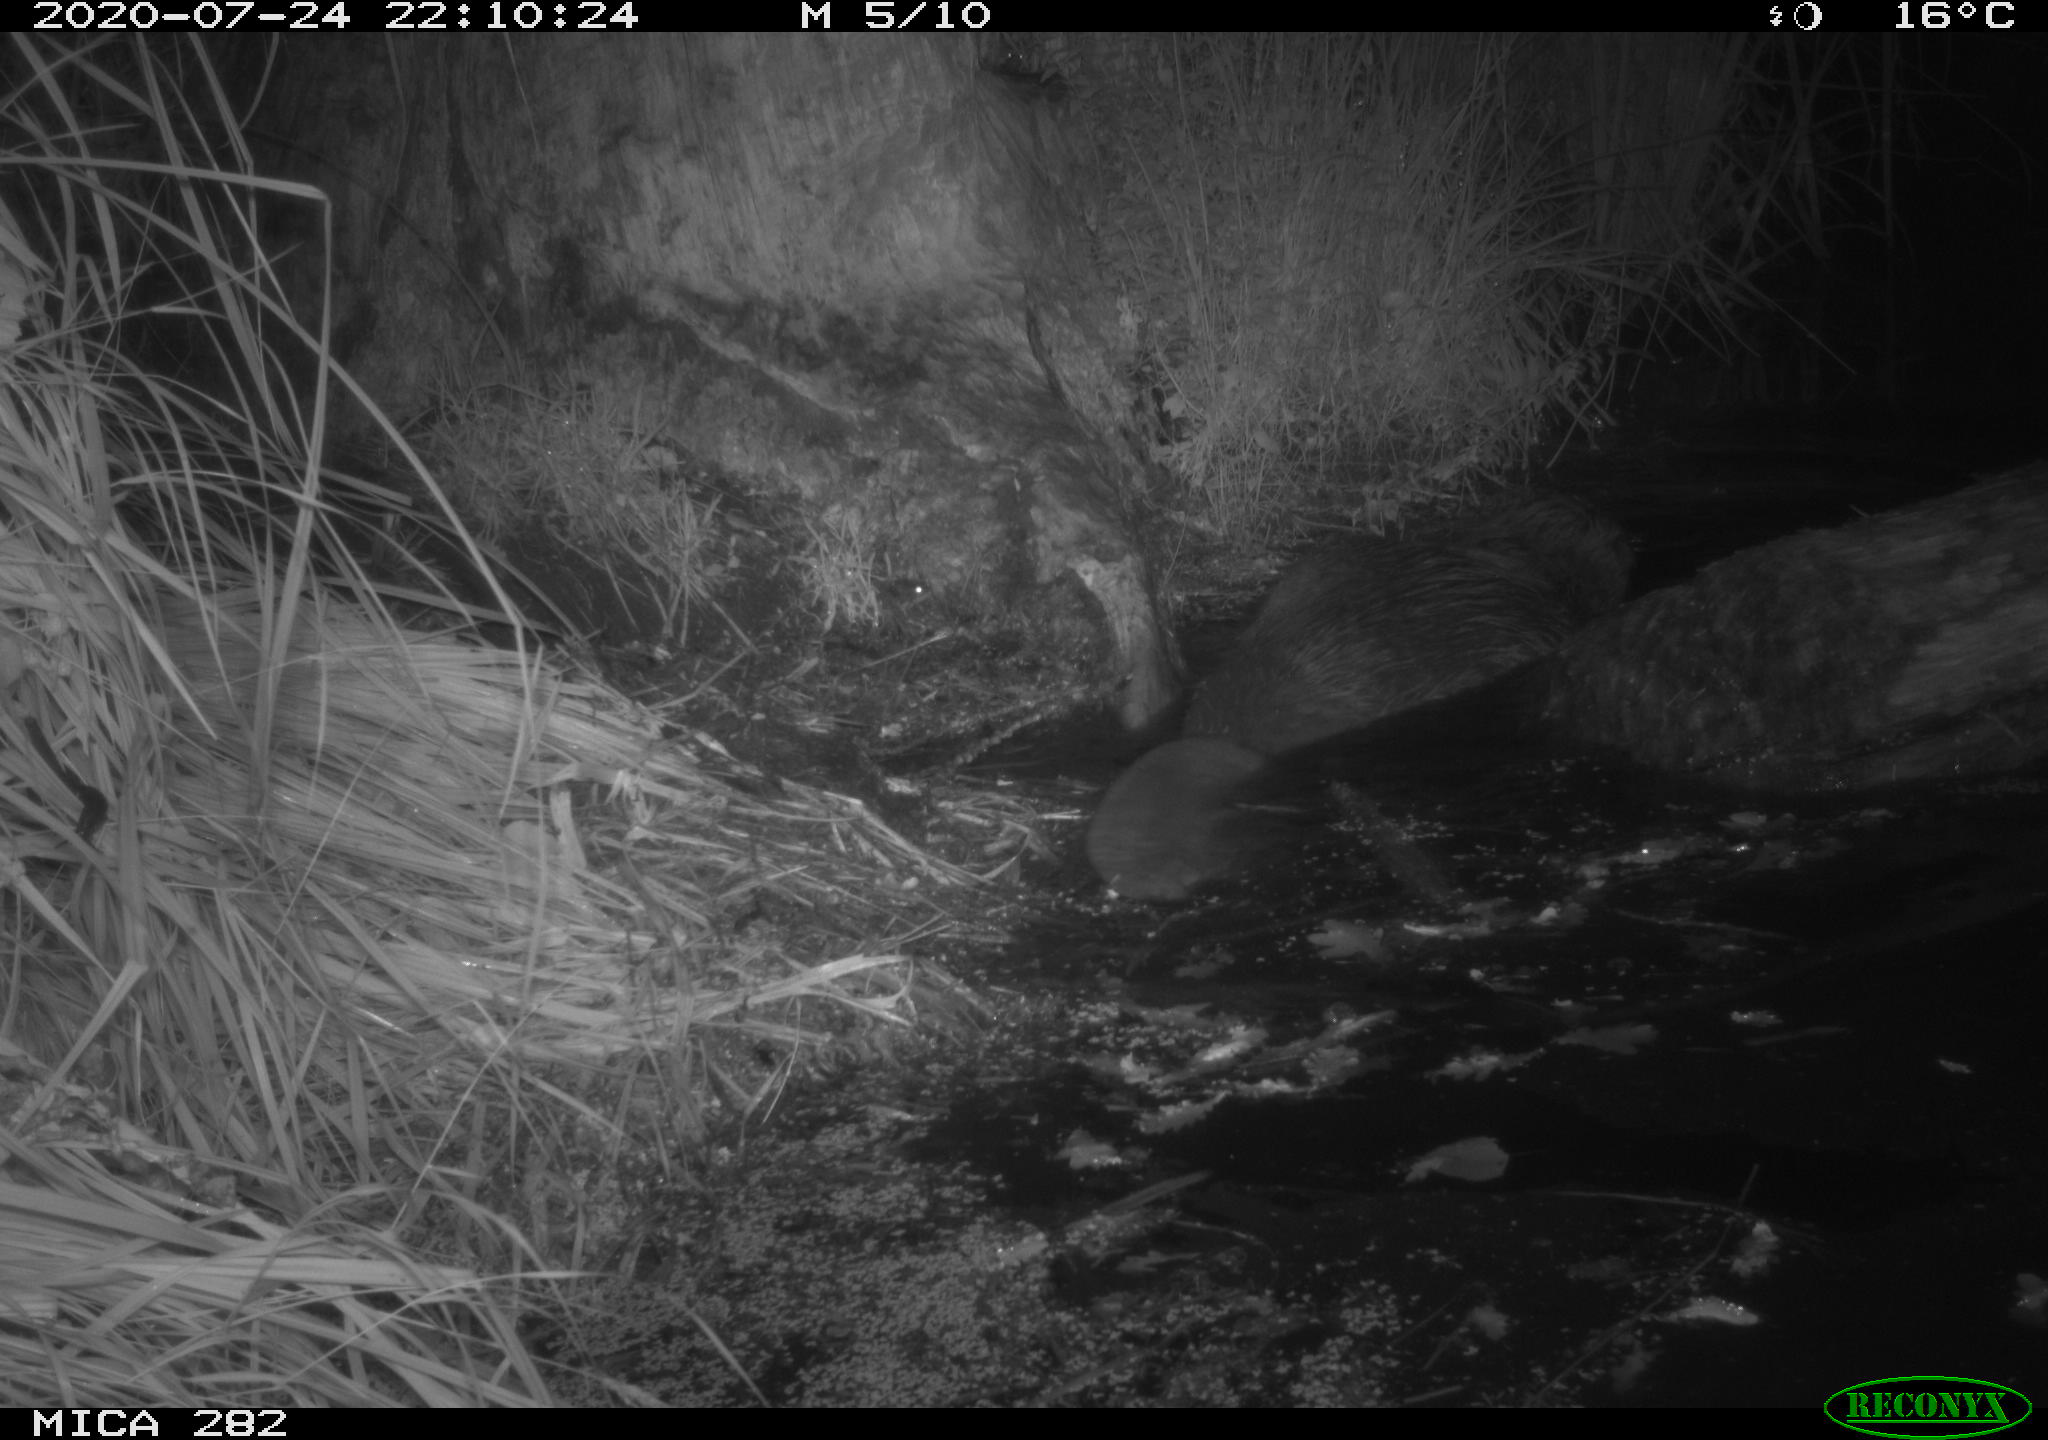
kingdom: Animalia
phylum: Chordata
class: Mammalia
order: Rodentia
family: Castoridae
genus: Castor
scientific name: Castor fiber
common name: Eurasian beaver
